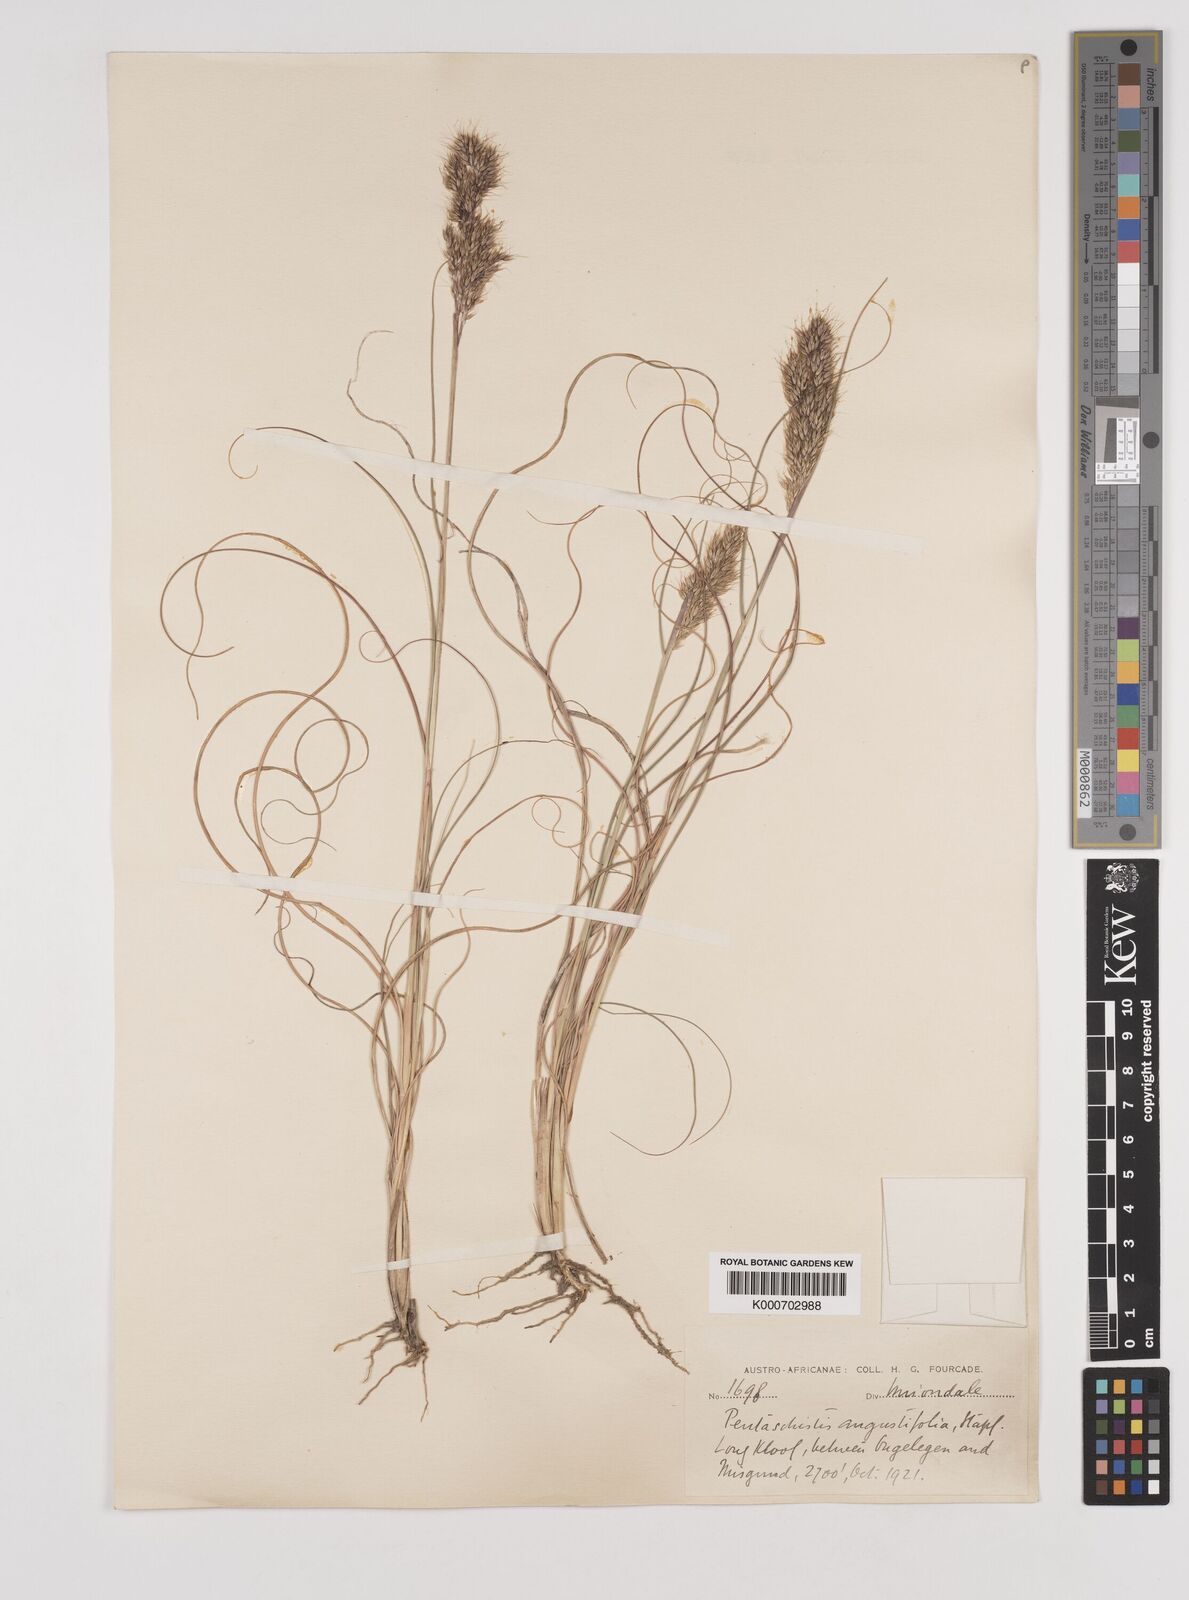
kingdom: Plantae
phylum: Tracheophyta
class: Liliopsida
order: Poales
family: Poaceae
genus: Pentameris
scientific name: Pentameris pallida
